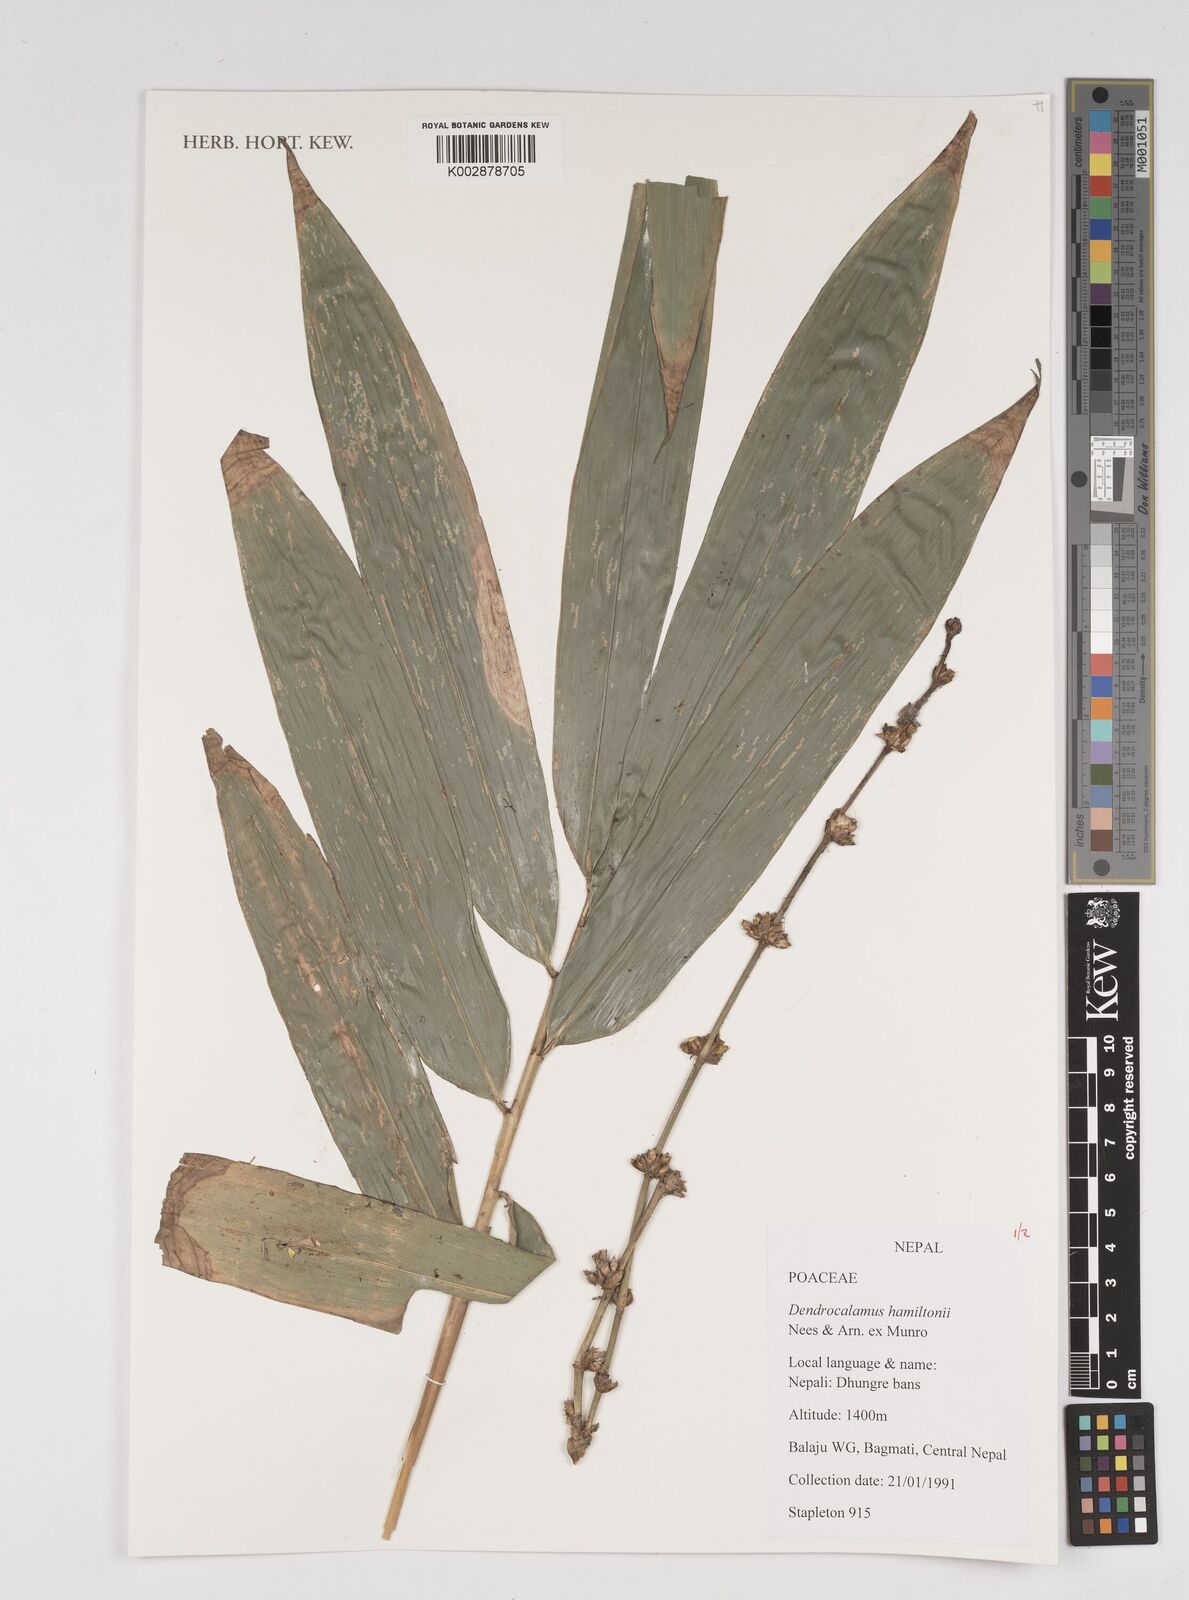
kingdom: Plantae
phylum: Tracheophyta
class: Liliopsida
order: Poales
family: Poaceae
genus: Dendrocalamus
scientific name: Dendrocalamus hamiltonii
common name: Tama bamboo
